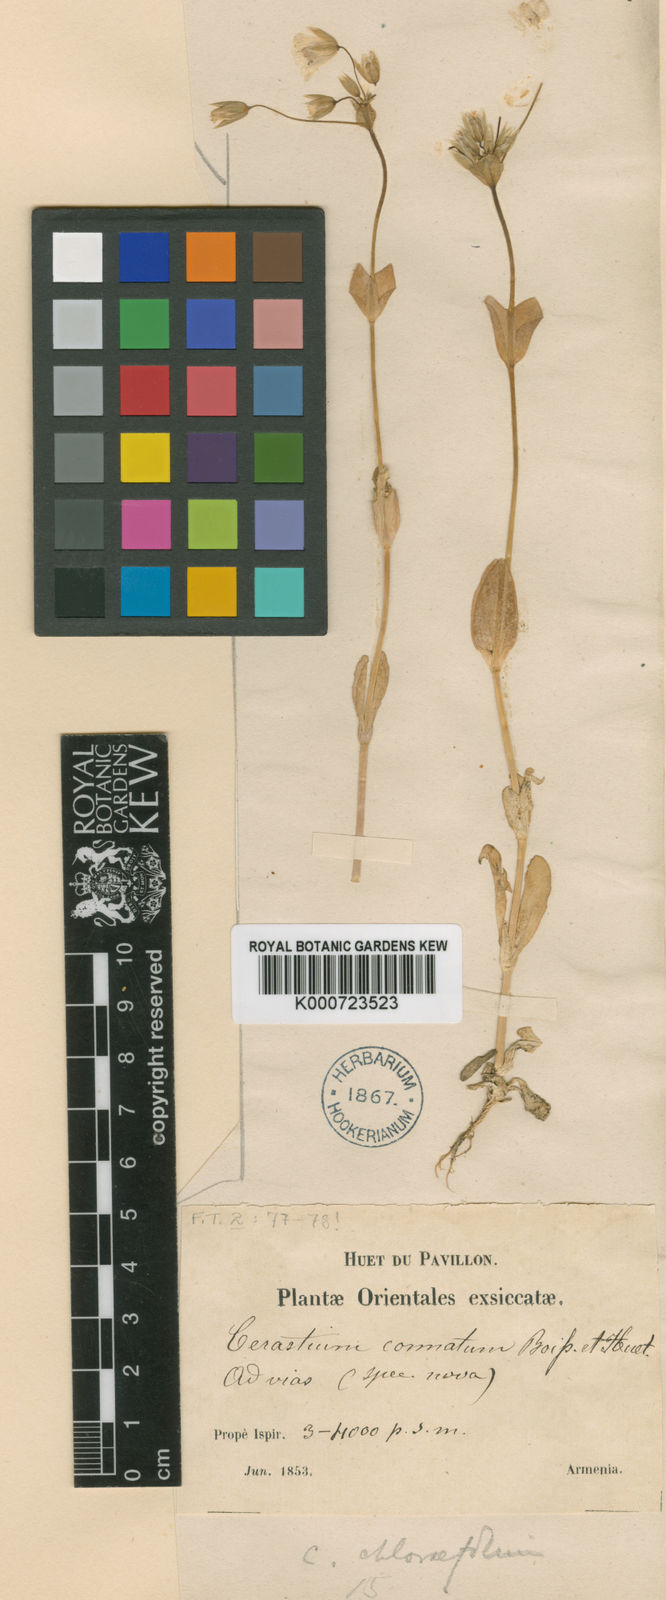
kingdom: Plantae
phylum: Tracheophyta
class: Magnoliopsida
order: Caryophyllales
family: Caryophyllaceae
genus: Dichodon
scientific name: Dichodon chlorifolium
